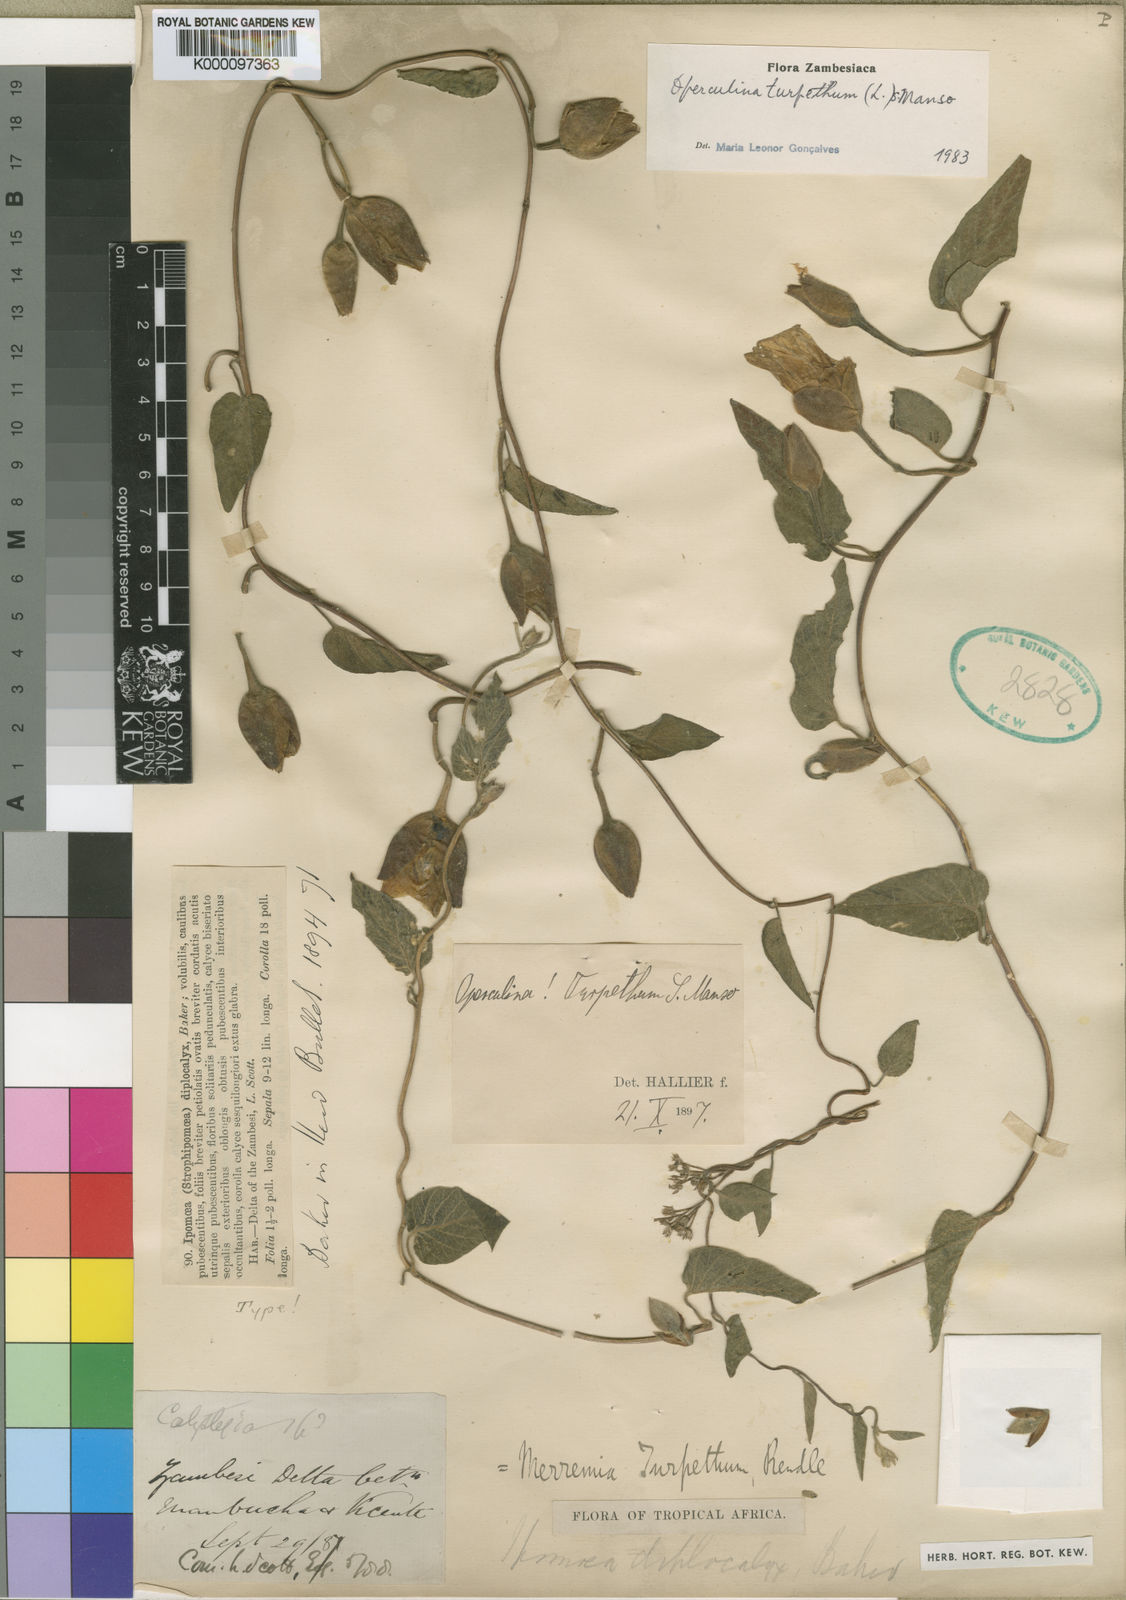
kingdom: Plantae
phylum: Tracheophyta
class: Magnoliopsida
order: Solanales
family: Convolvulaceae
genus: Operculina
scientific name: Operculina turpethum
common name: Transparent wood-rose
